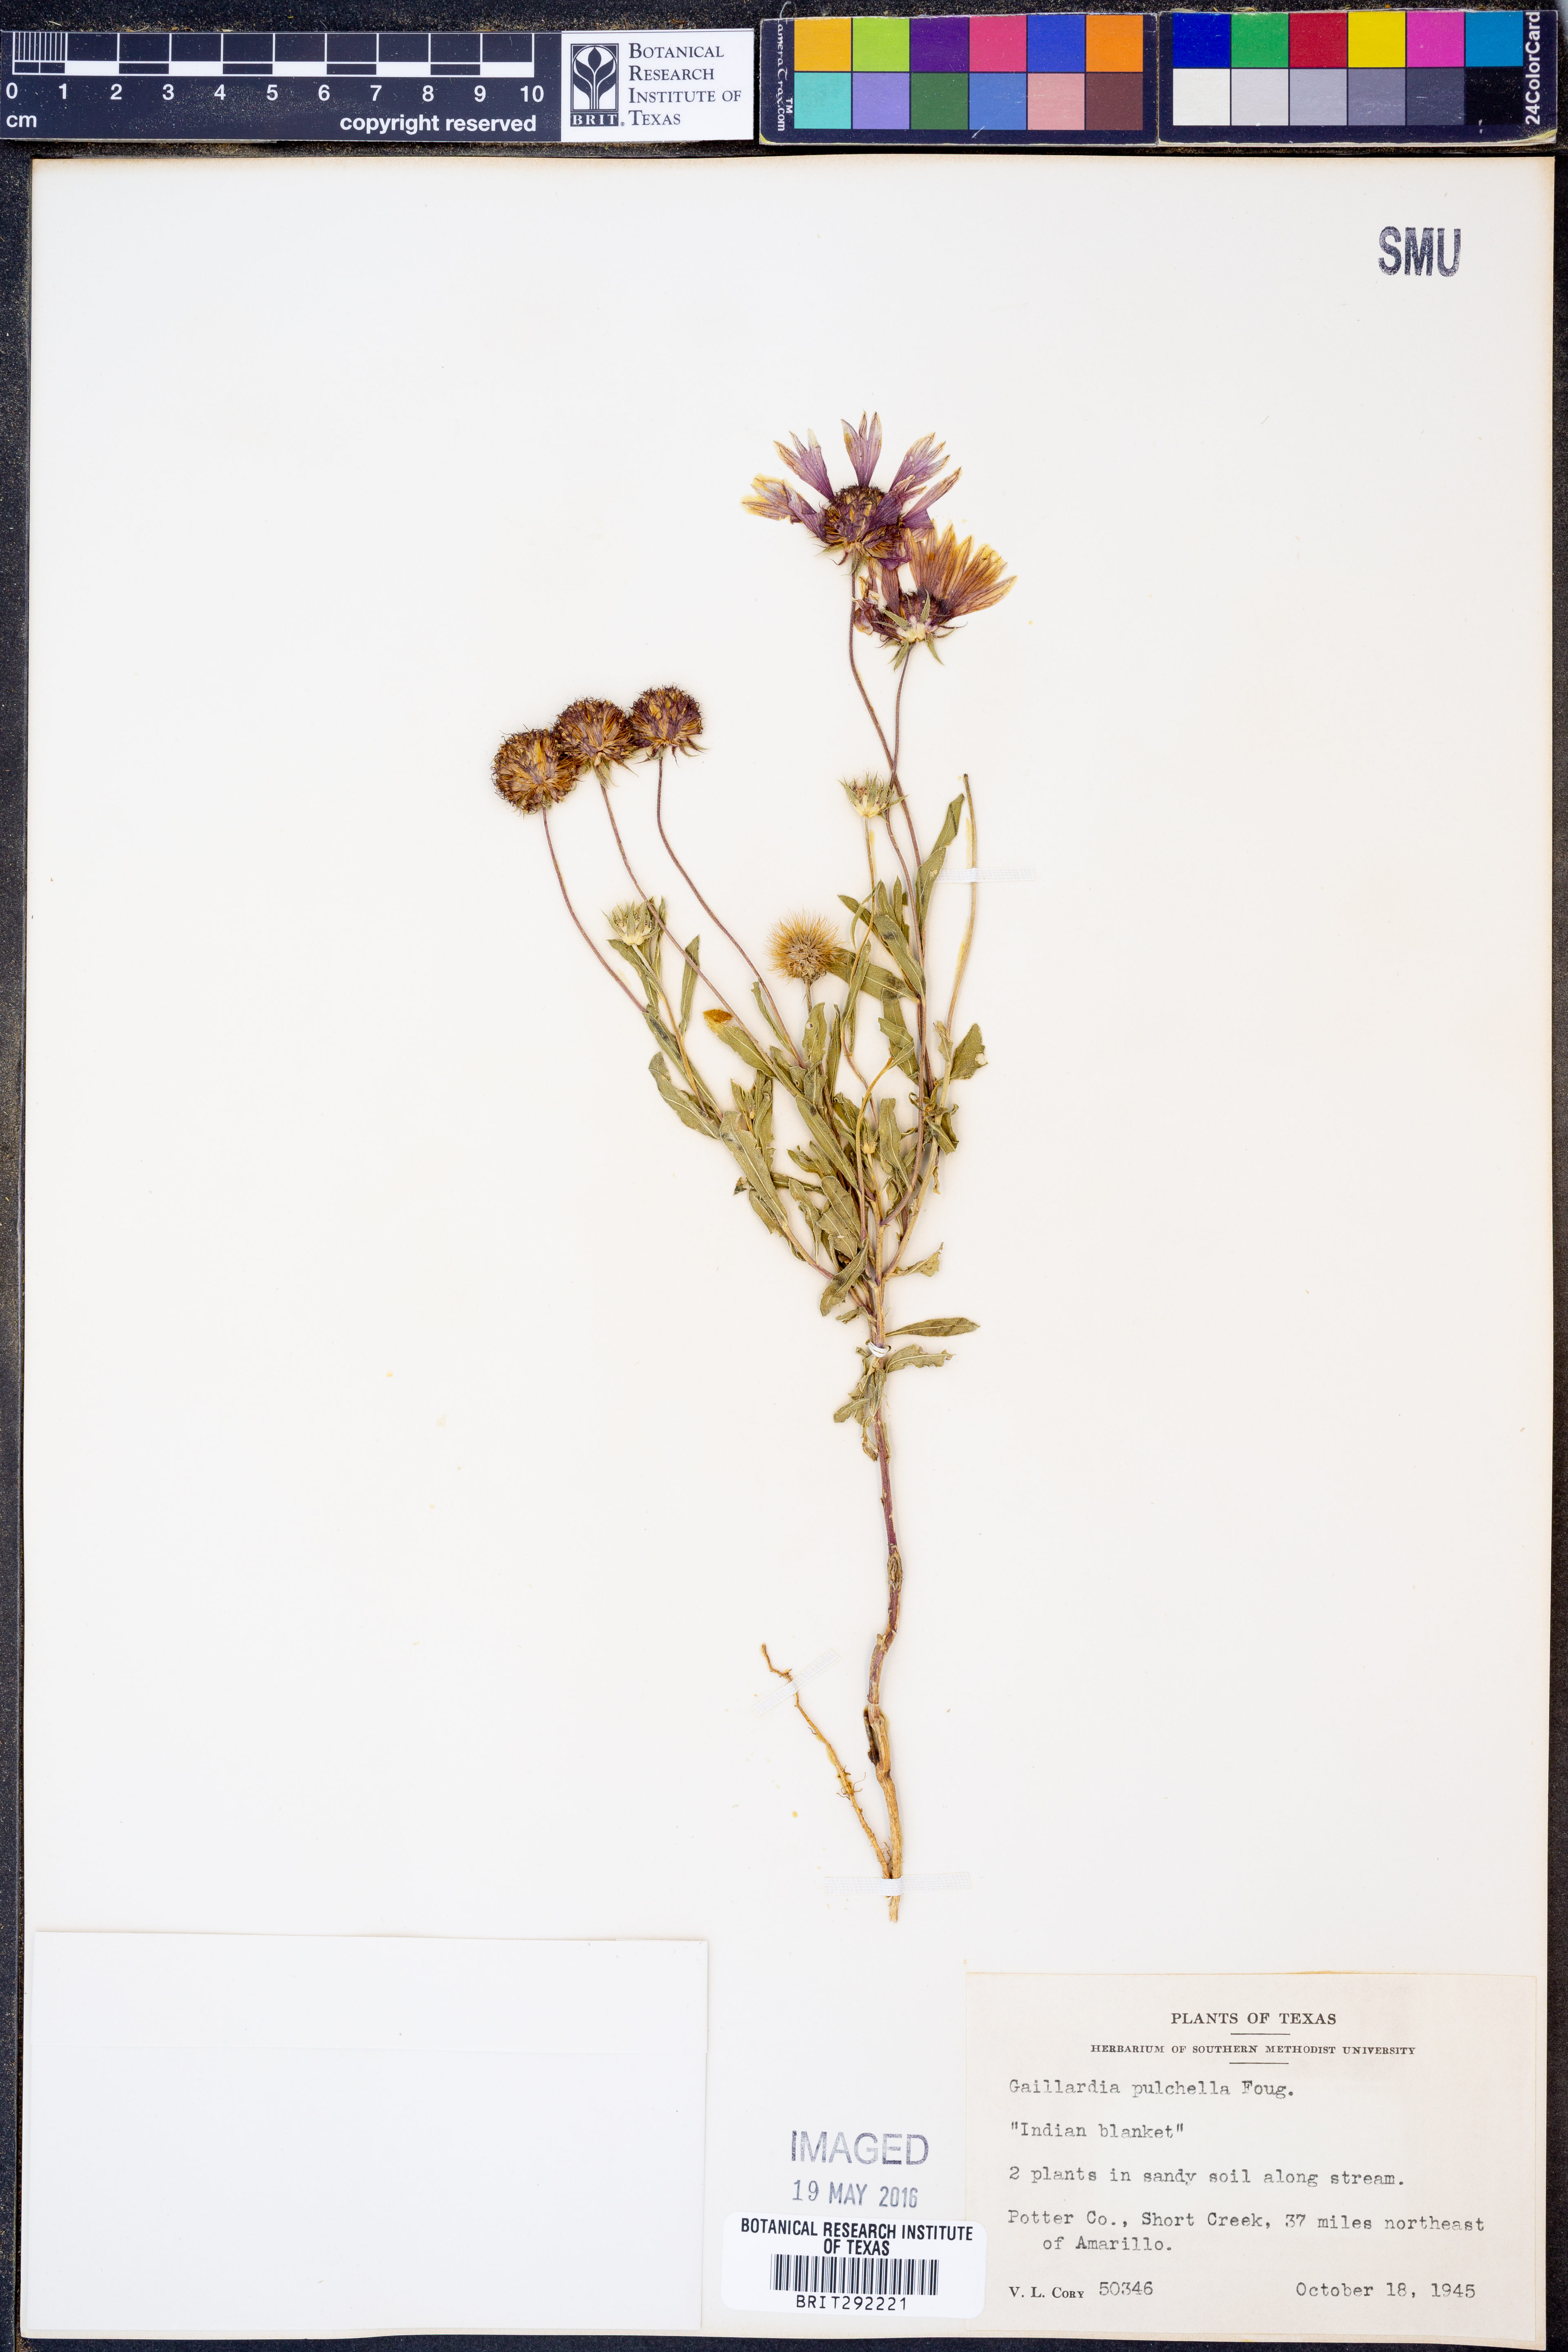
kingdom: Plantae
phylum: Tracheophyta
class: Magnoliopsida
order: Asterales
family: Asteraceae
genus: Gaillardia
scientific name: Gaillardia pulchella
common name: Firewheel
